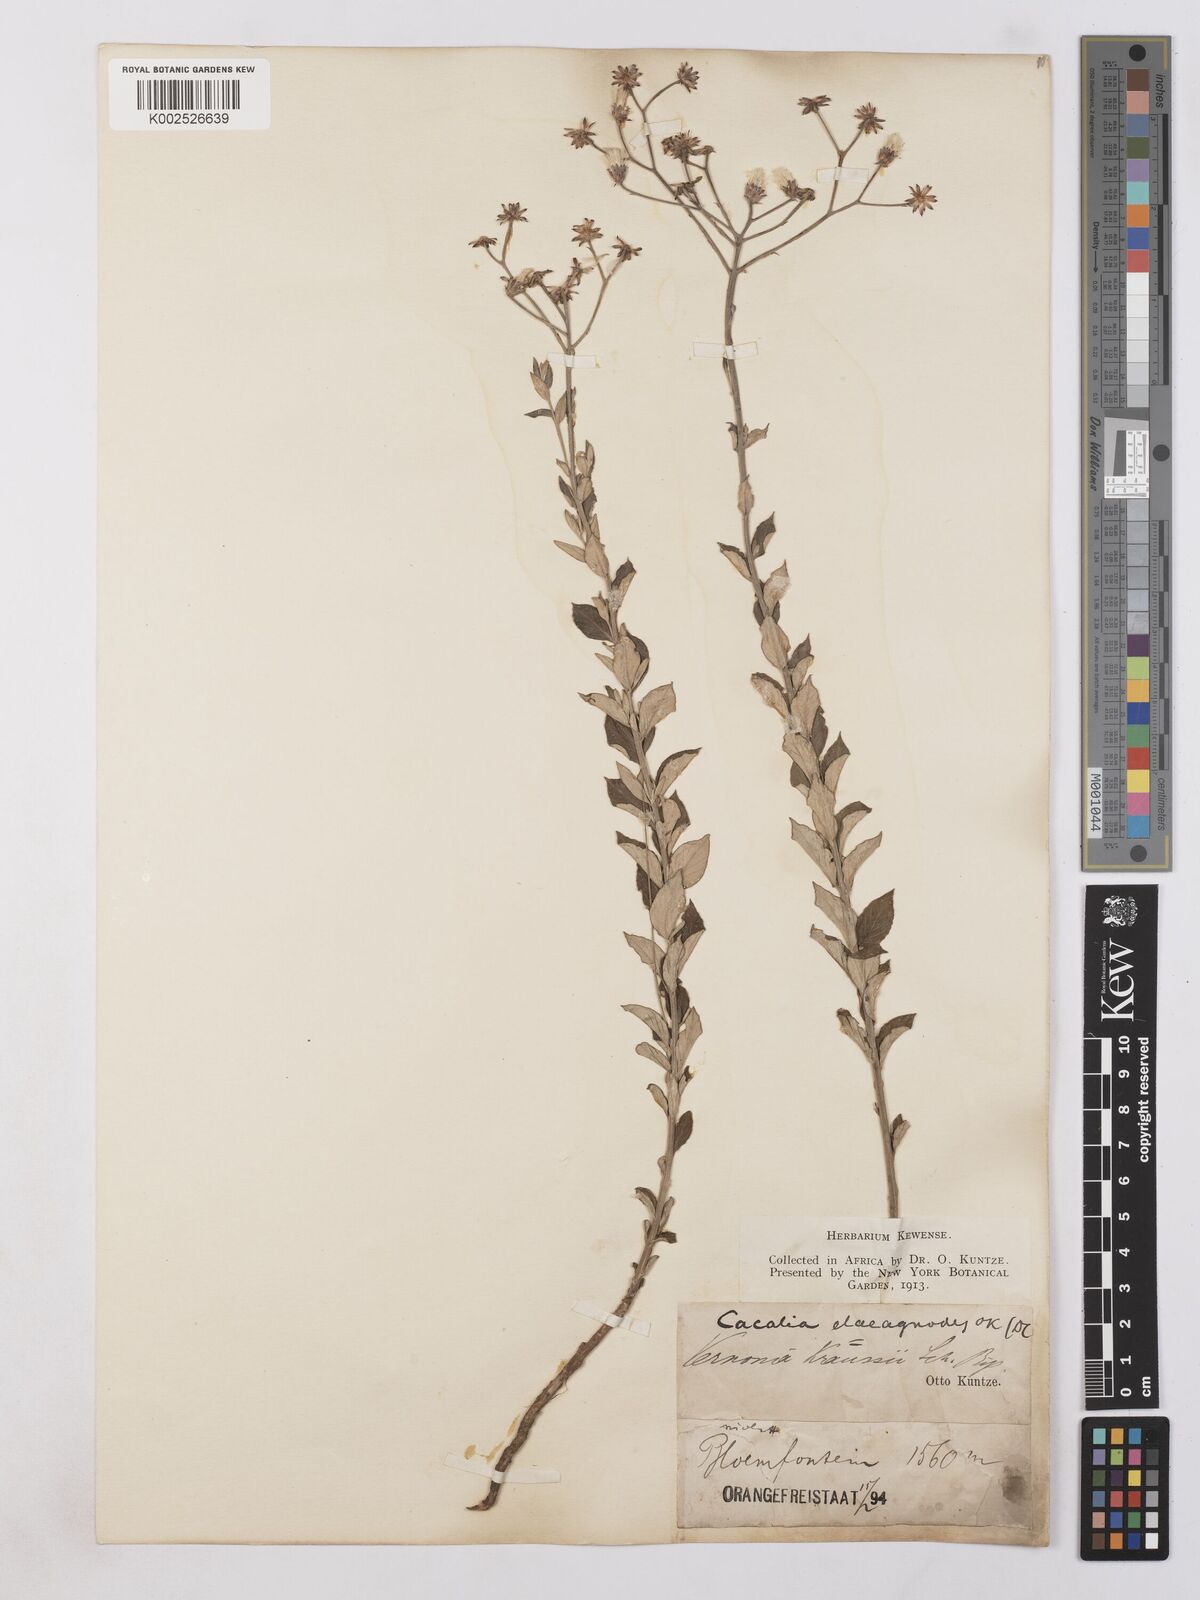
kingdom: Plantae
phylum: Tracheophyta
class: Magnoliopsida
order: Asterales
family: Asteraceae
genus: Hilliardiella
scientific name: Hilliardiella oligocephala
